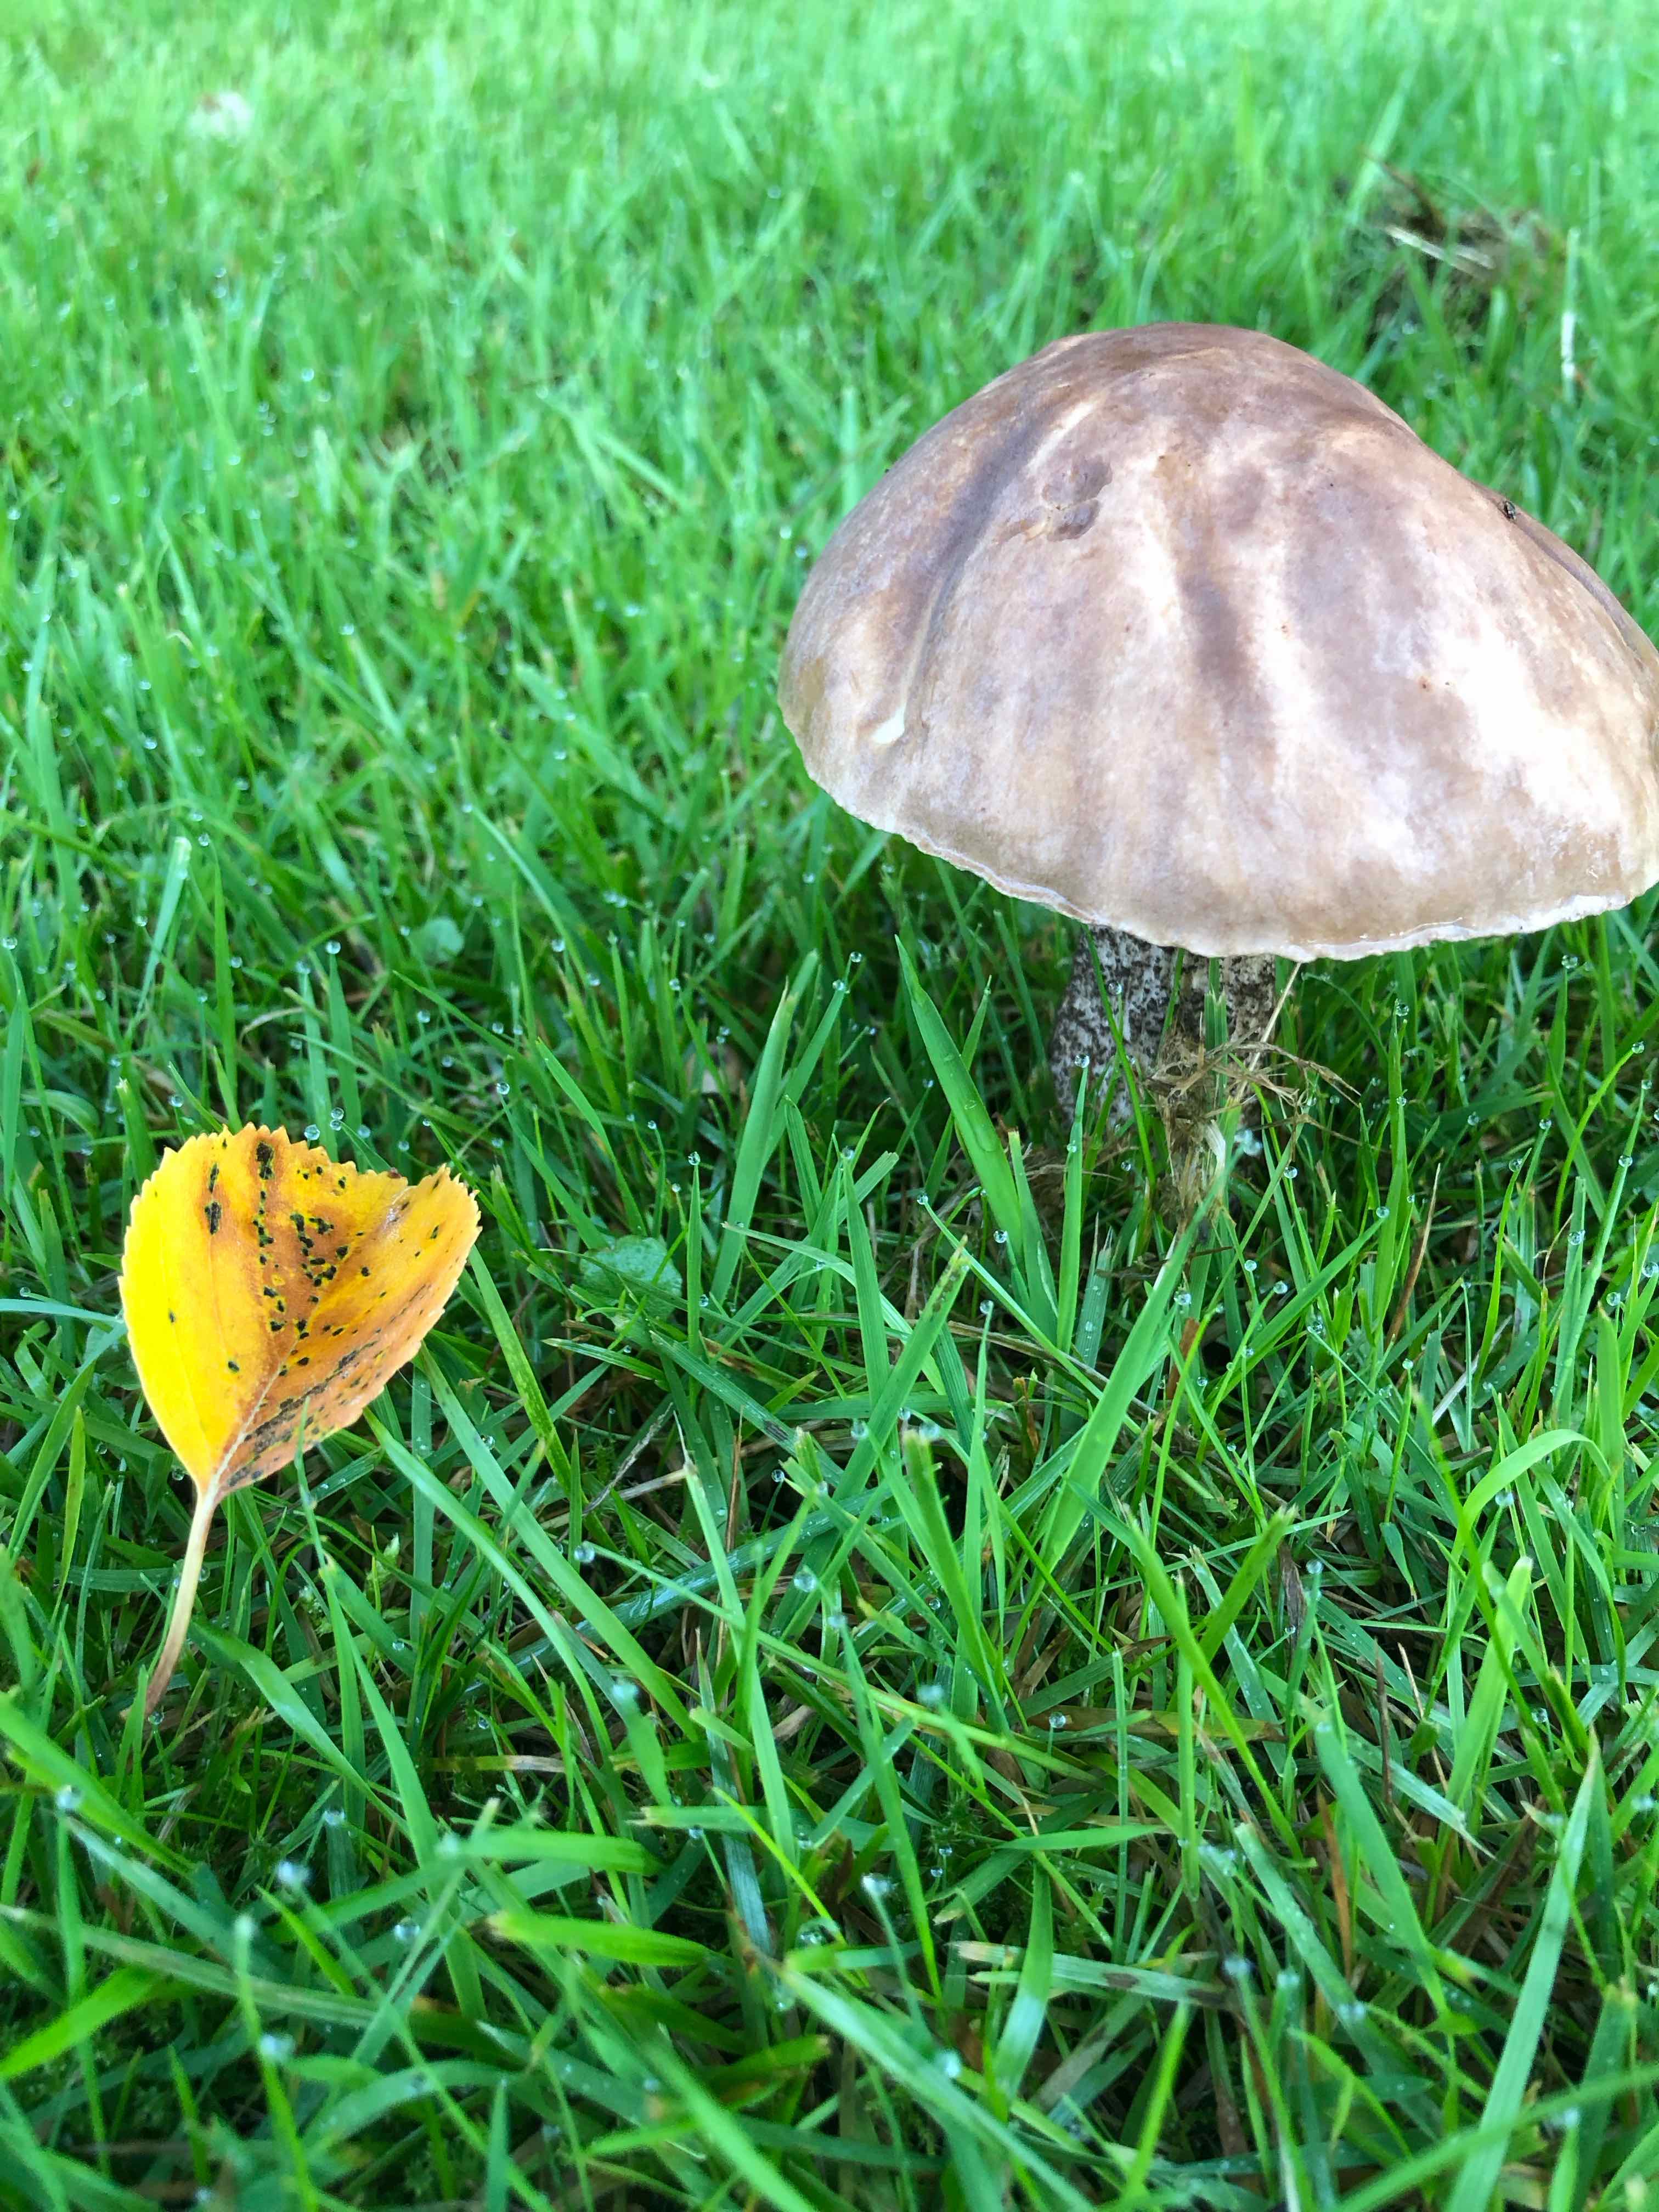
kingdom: Fungi
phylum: Basidiomycota
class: Agaricomycetes
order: Boletales
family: Boletaceae
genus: Leccinum
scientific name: Leccinum
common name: skælrørhat
